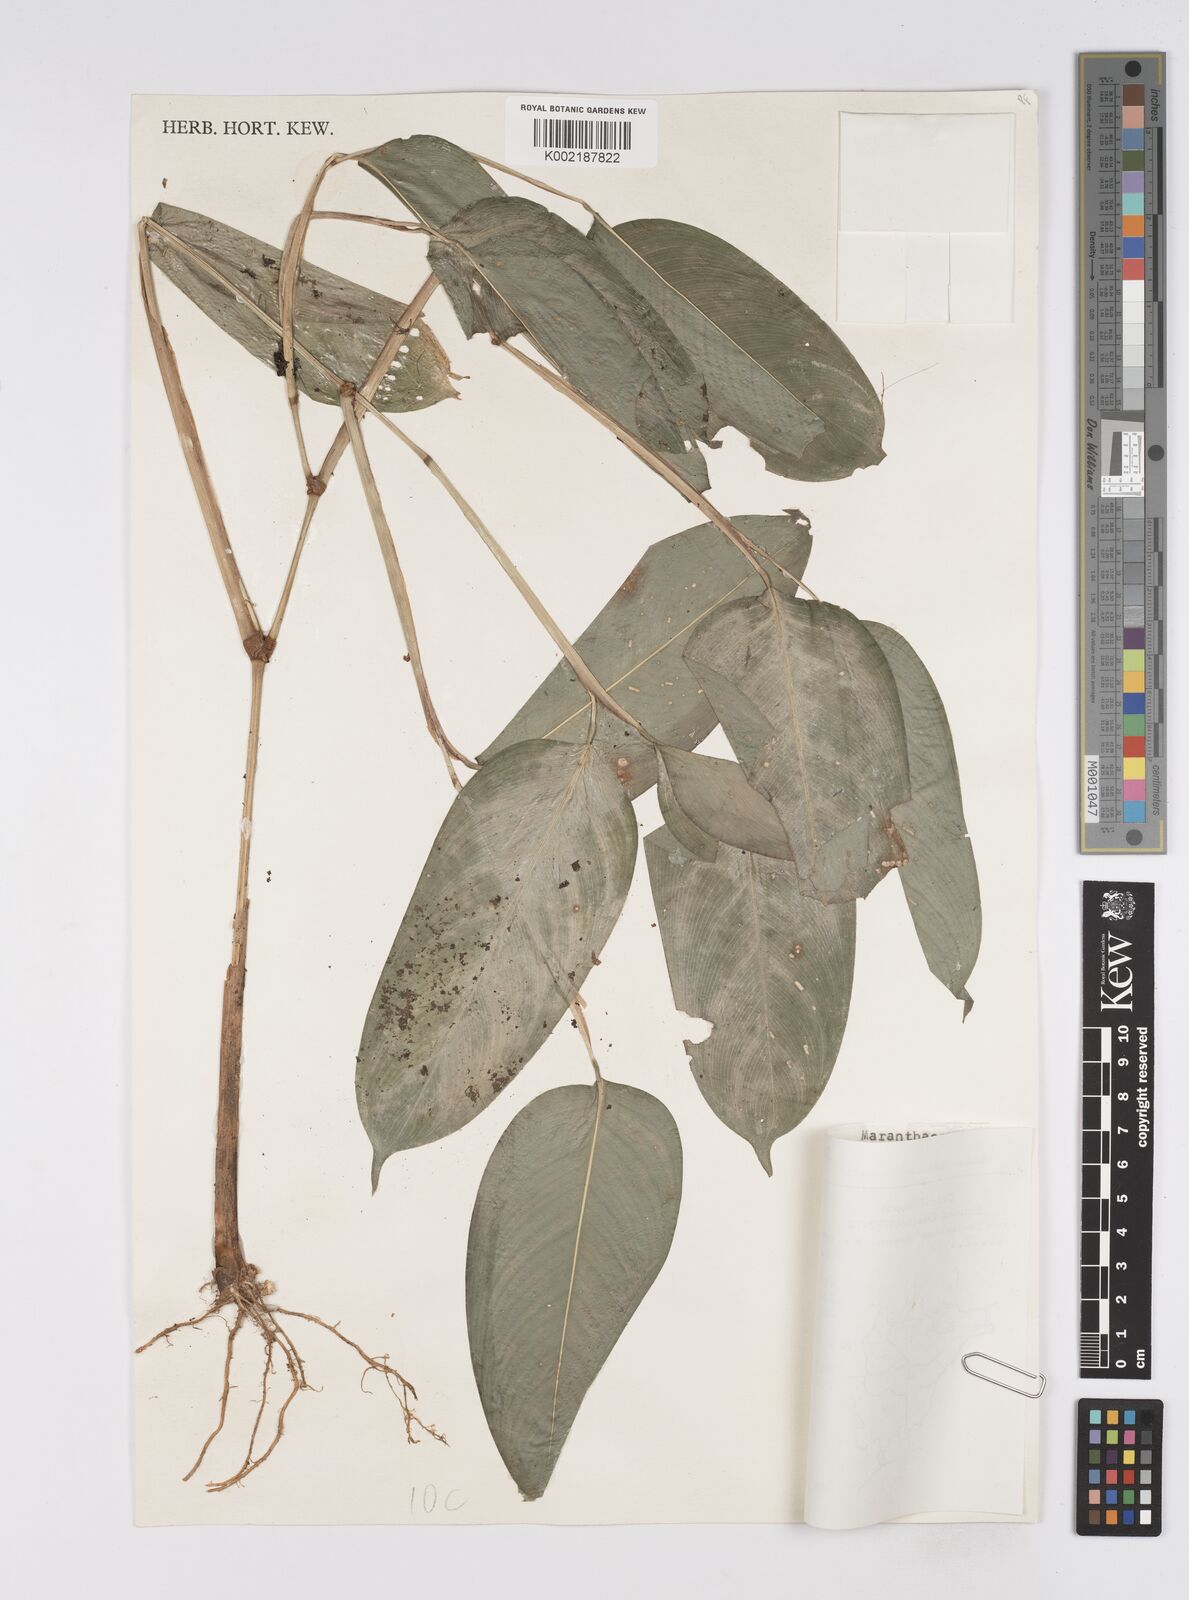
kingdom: Plantae
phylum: Tracheophyta
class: Liliopsida
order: Zingiberales
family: Marantaceae
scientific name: Marantaceae
